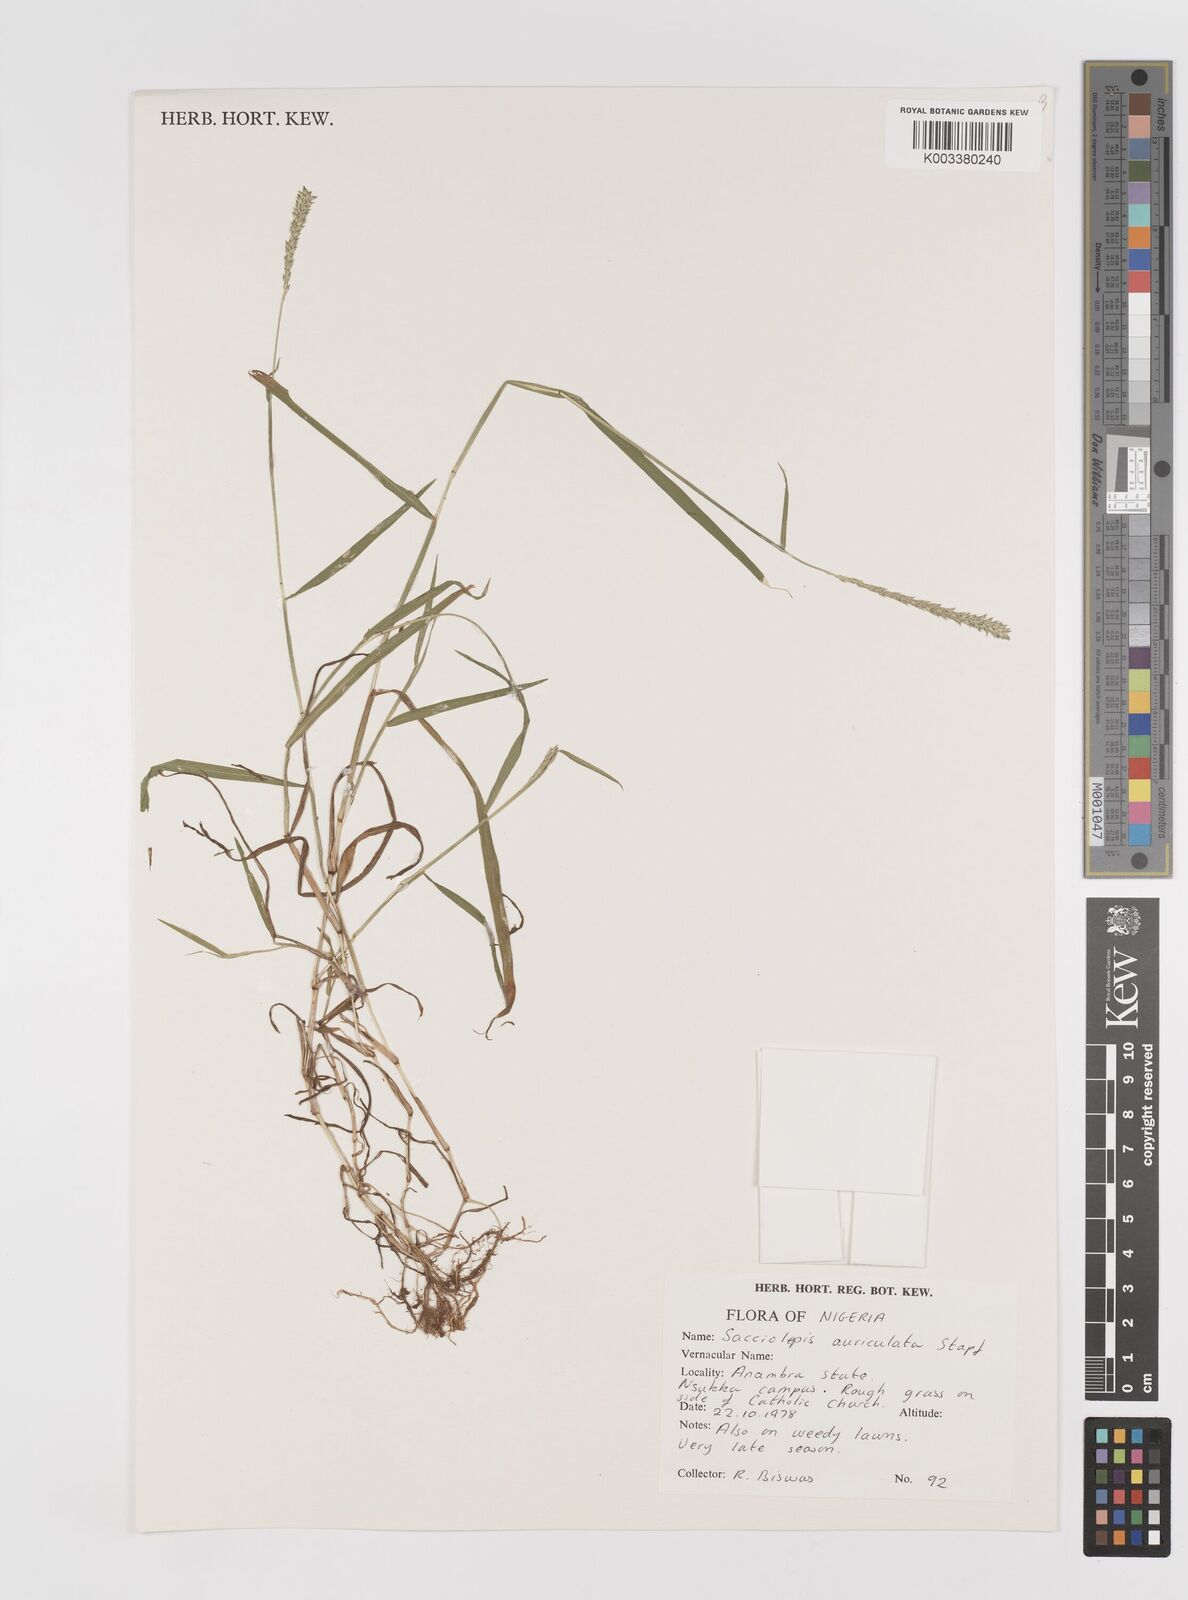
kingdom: Plantae
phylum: Tracheophyta
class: Liliopsida
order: Poales
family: Poaceae
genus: Sacciolepis
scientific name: Sacciolepis indica
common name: Glenwoodgrass
